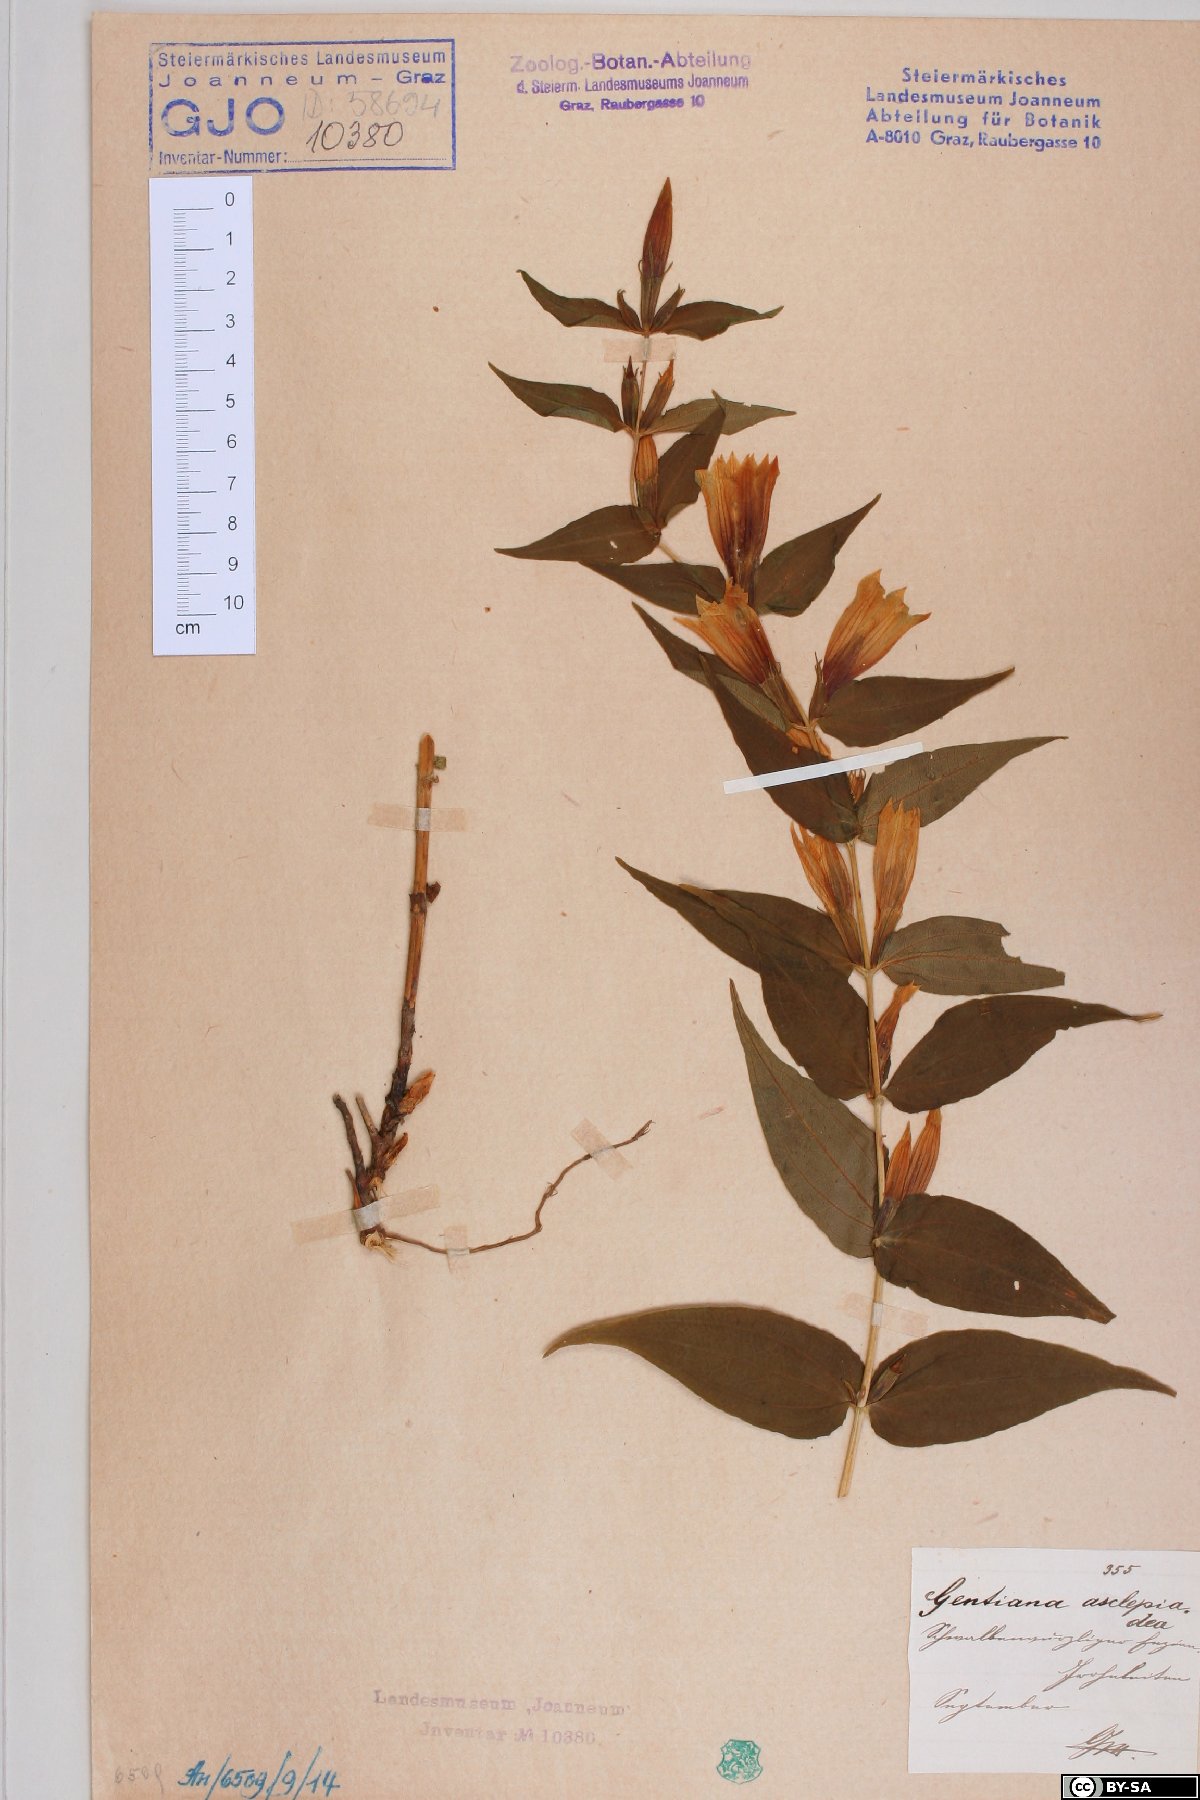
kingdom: Plantae
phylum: Tracheophyta
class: Magnoliopsida
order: Gentianales
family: Gentianaceae
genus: Gentiana
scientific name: Gentiana asclepiadea
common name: Willow gentian
